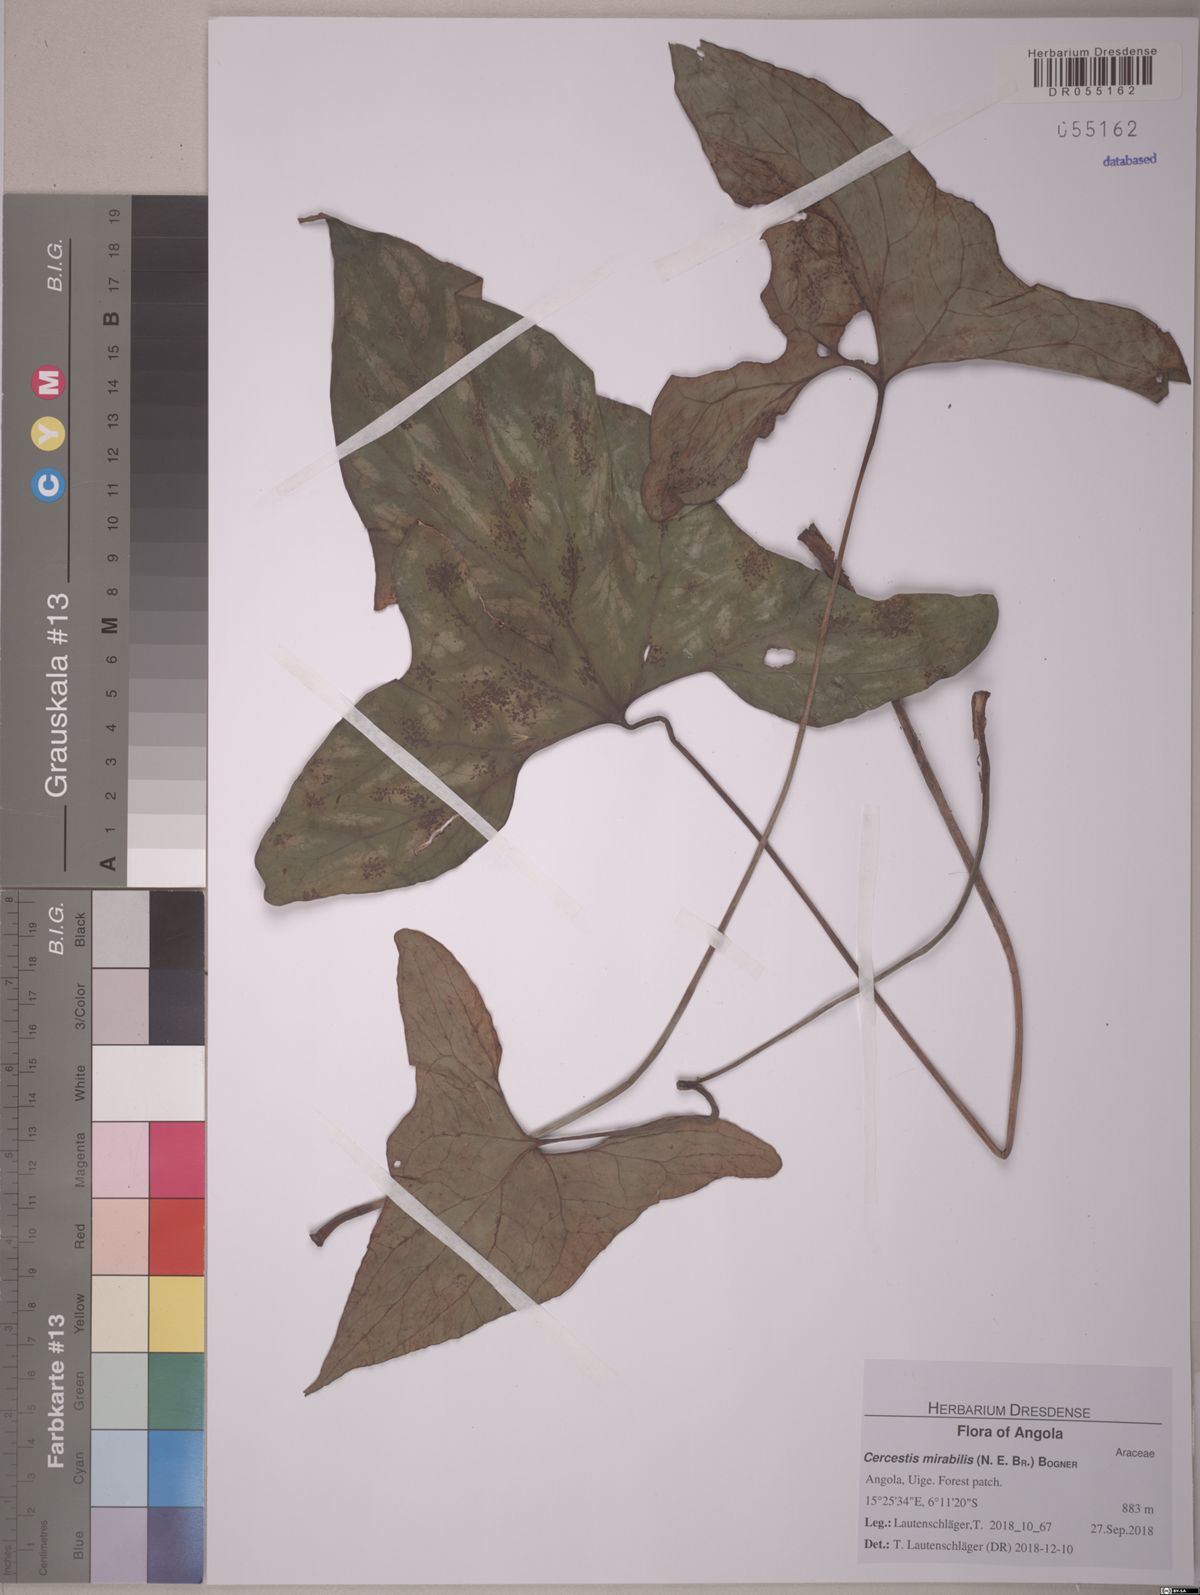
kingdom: Plantae
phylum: Tracheophyta
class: Liliopsida
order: Alismatales
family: Araceae
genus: Cercestis
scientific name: Cercestis mirabilis
